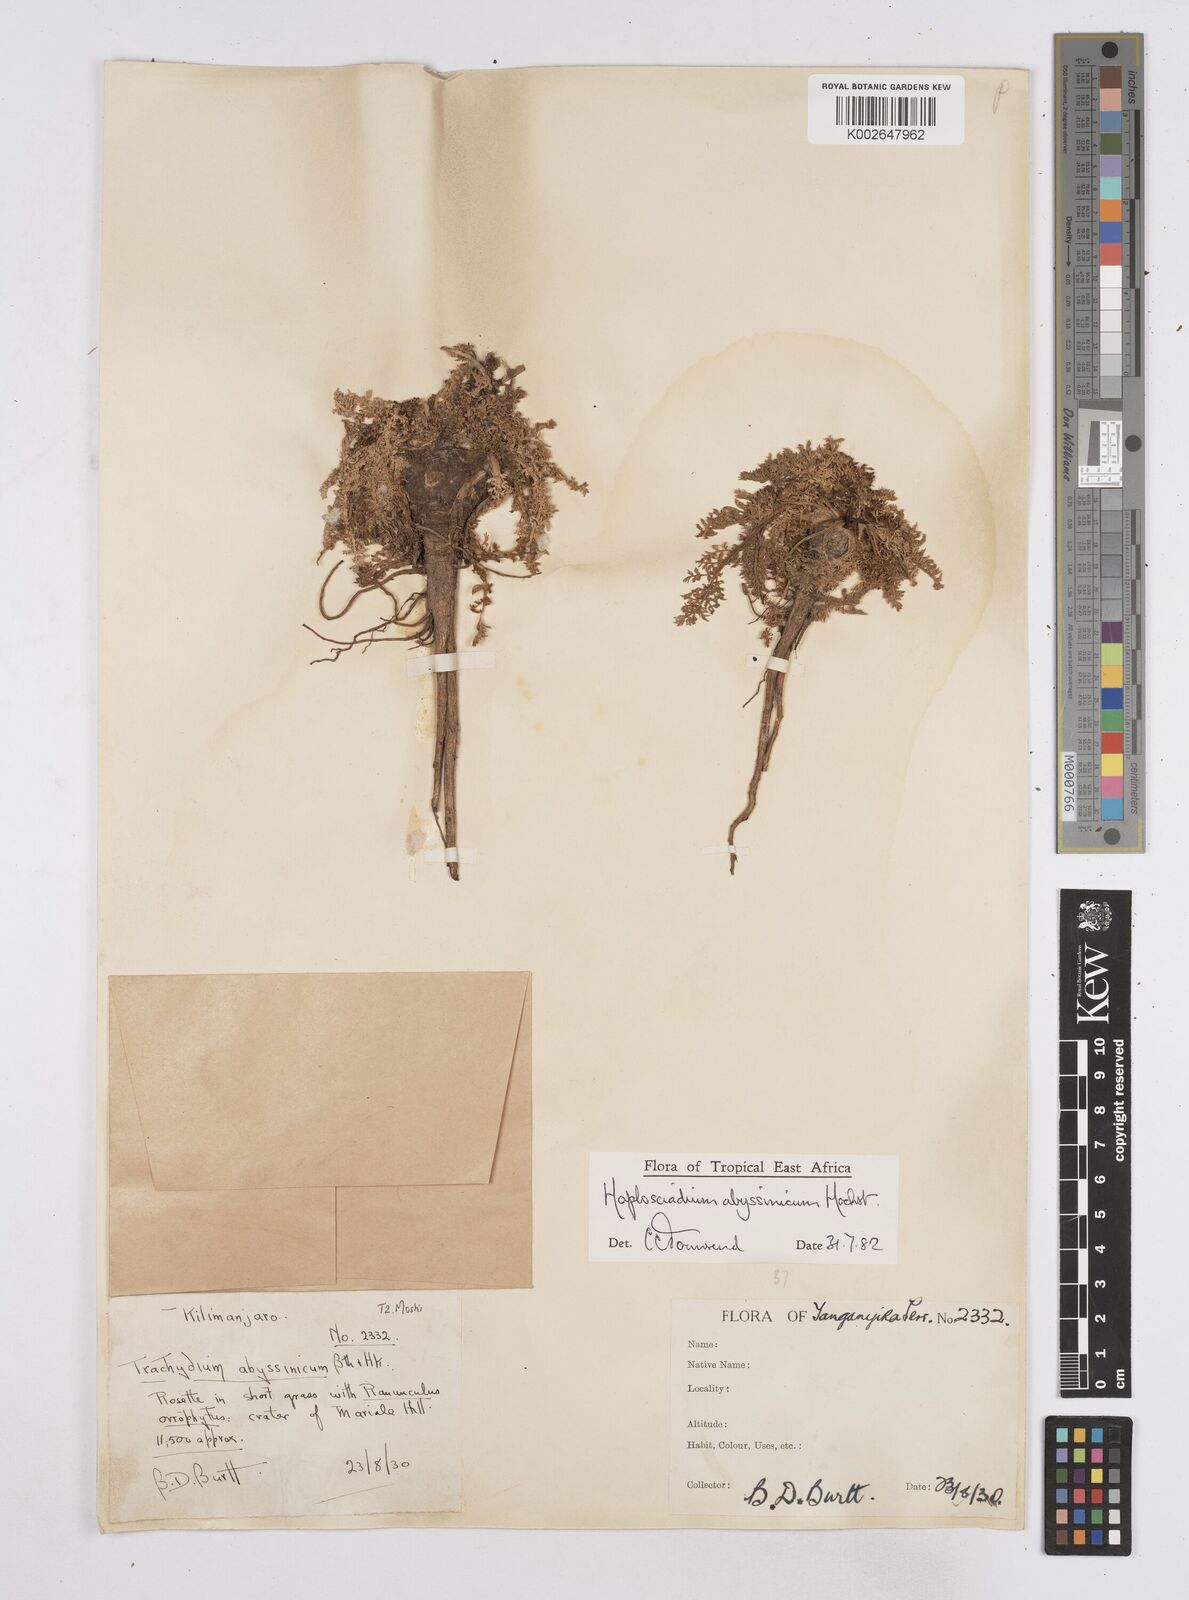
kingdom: Plantae
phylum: Tracheophyta
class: Magnoliopsida
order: Apiales
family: Apiaceae
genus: Haplosciadium
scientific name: Haplosciadium abyssinicum
